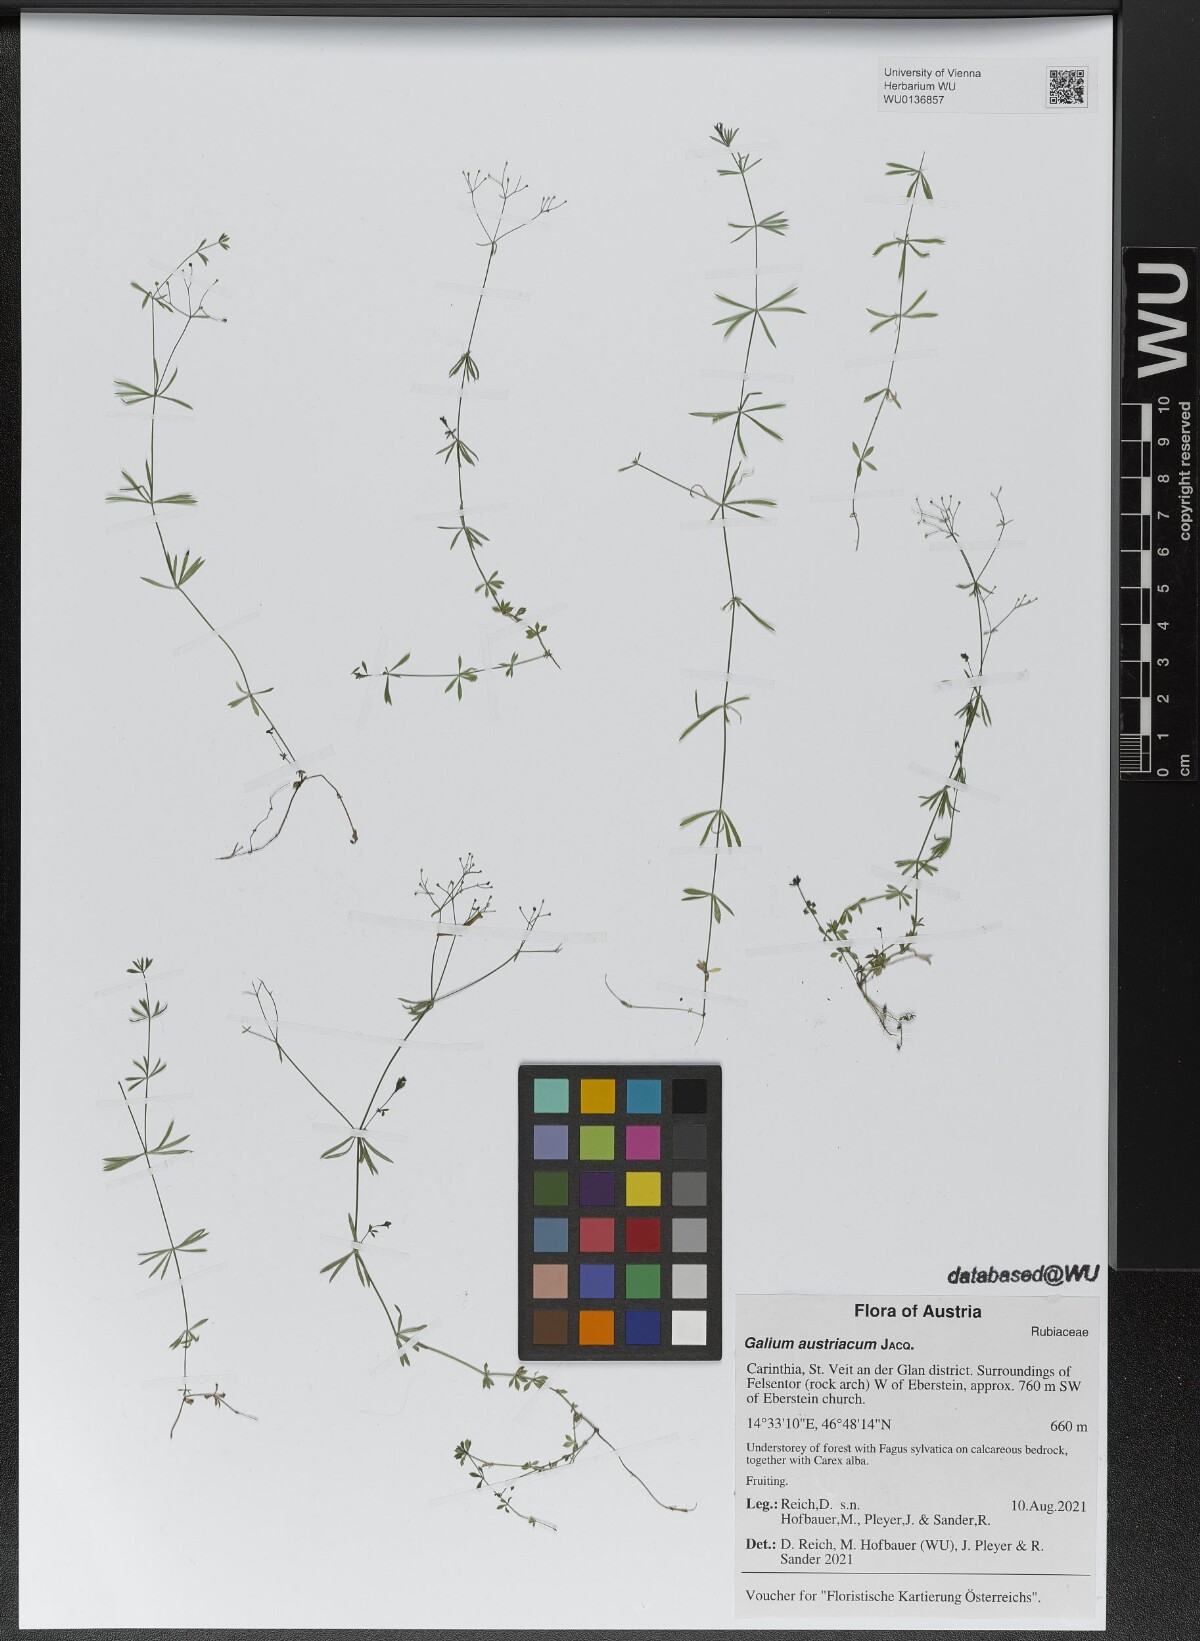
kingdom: Plantae
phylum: Tracheophyta
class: Magnoliopsida
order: Gentianales
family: Rubiaceae
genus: Galium
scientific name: Galium austriacum
